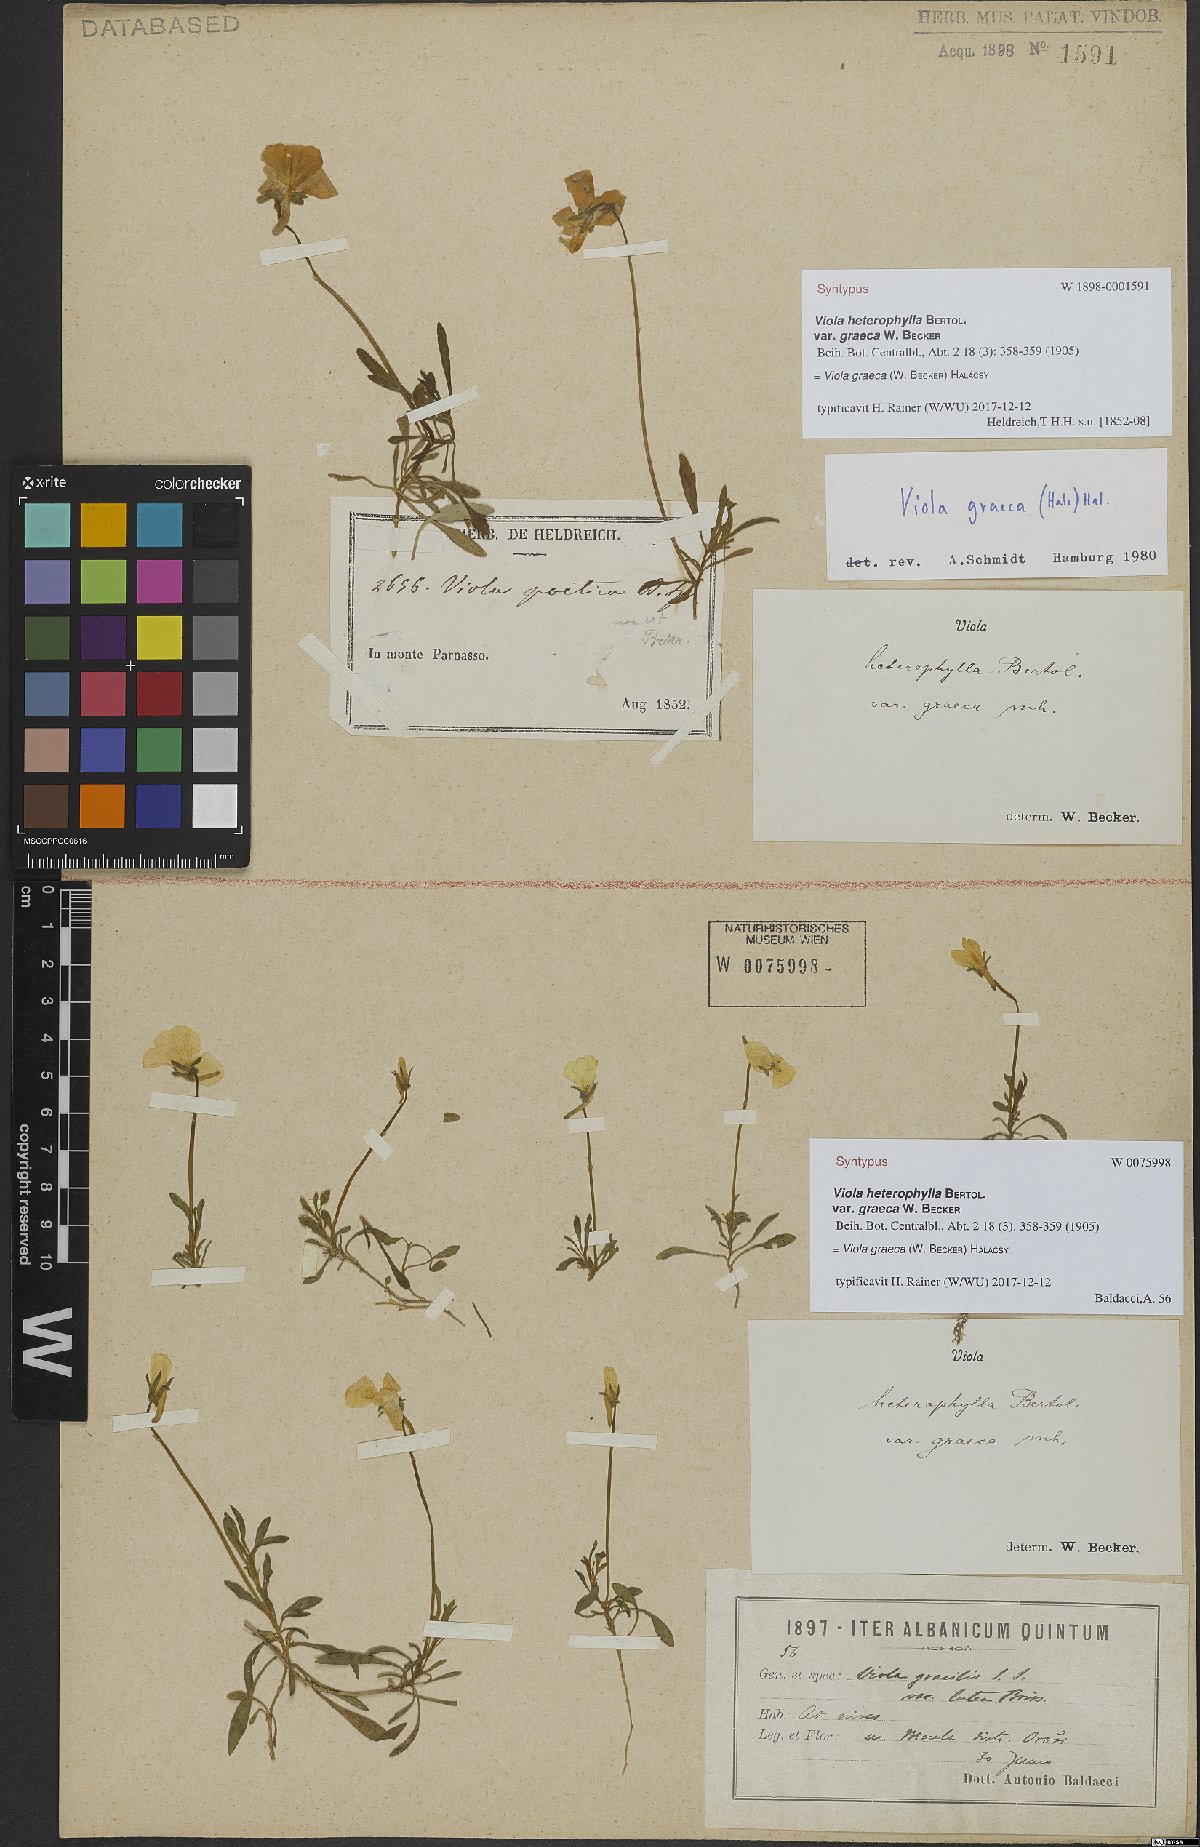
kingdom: Plantae
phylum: Tracheophyta
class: Magnoliopsida
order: Malpighiales
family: Violaceae
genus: Viola
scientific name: Viola graeca
